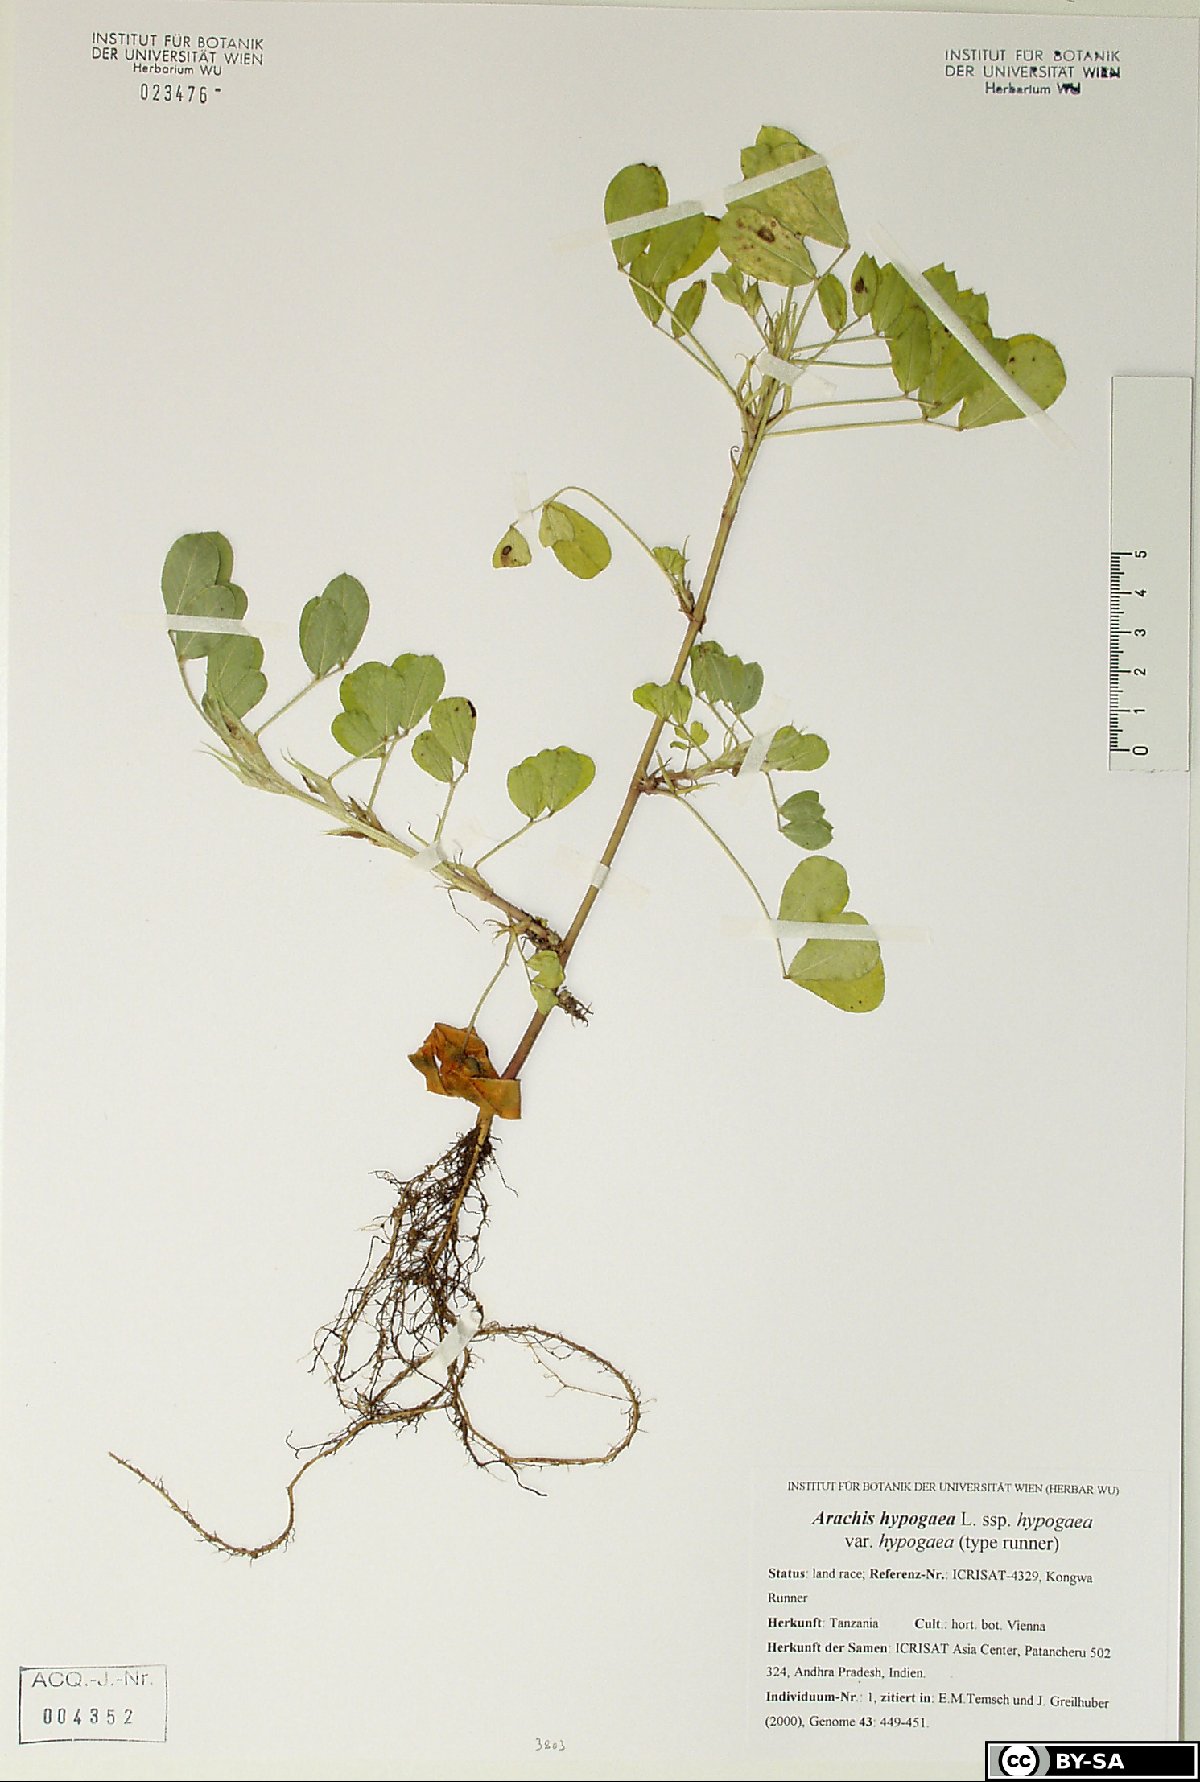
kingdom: Plantae
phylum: Tracheophyta
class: Magnoliopsida
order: Fabales
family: Fabaceae
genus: Arachis
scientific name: Arachis hypogaea
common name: Peanut
